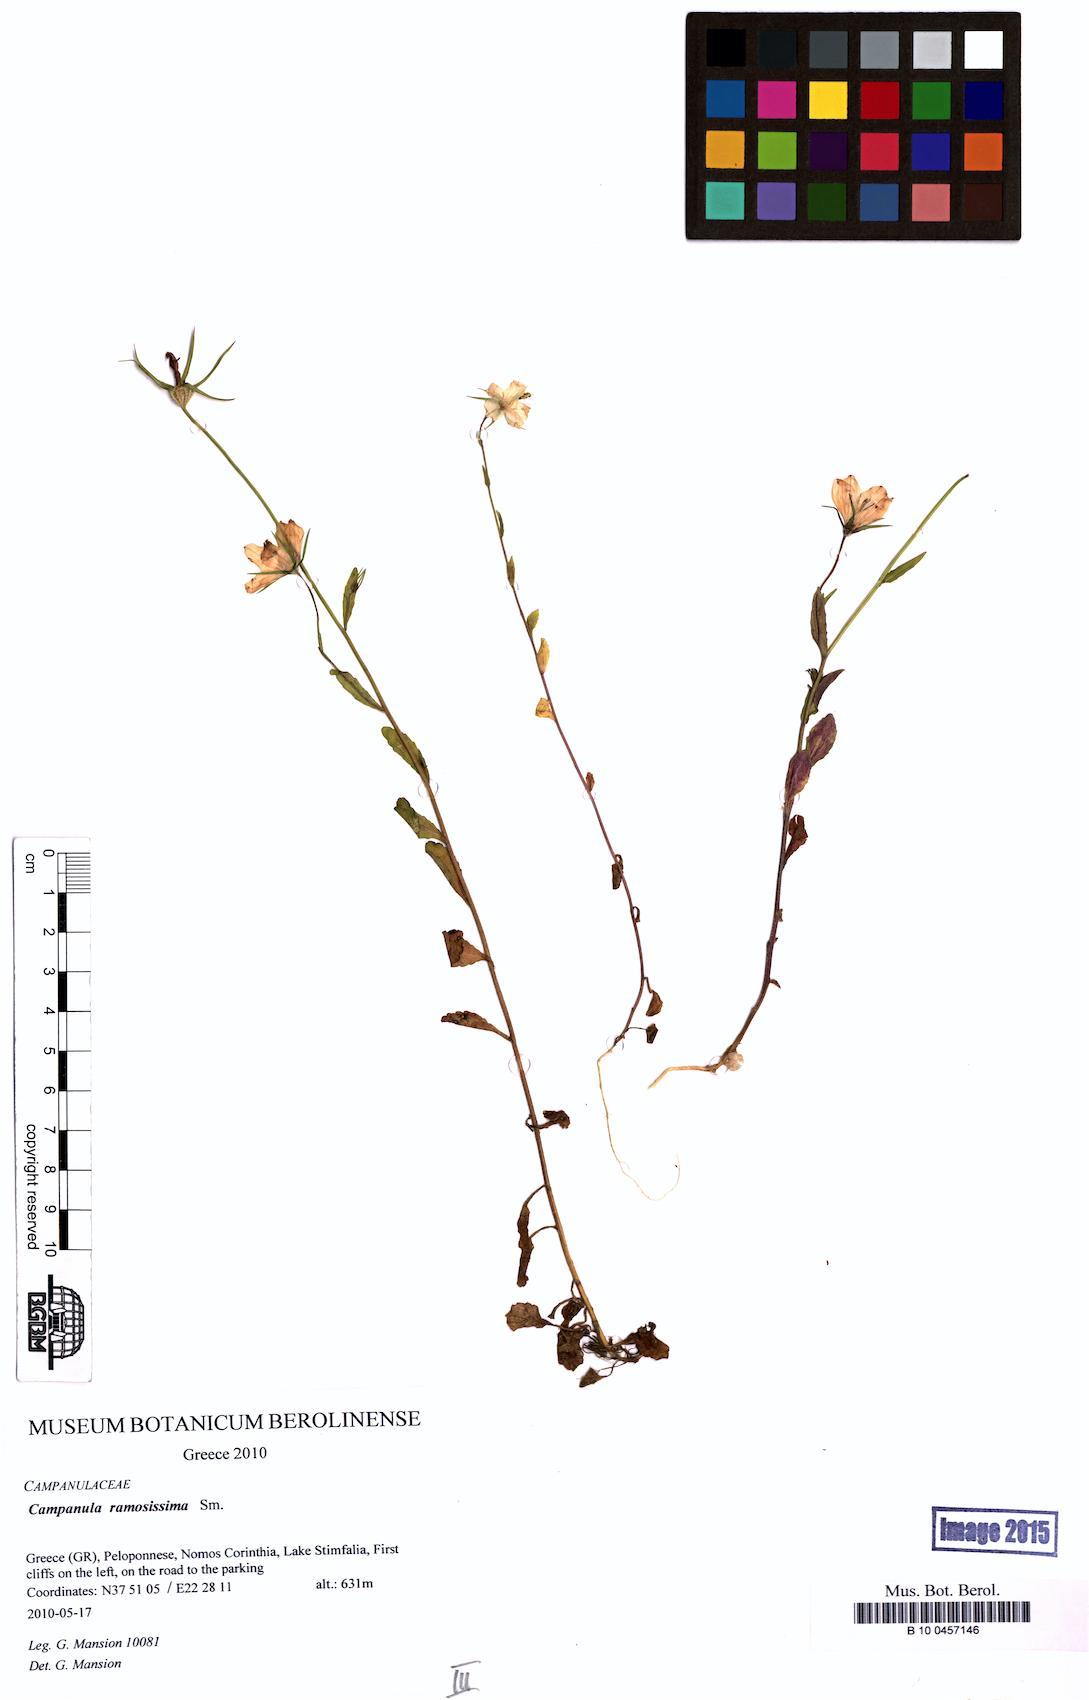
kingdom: Plantae
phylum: Tracheophyta
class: Magnoliopsida
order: Asterales
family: Campanulaceae
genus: Campanula
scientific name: Campanula ramosissima
